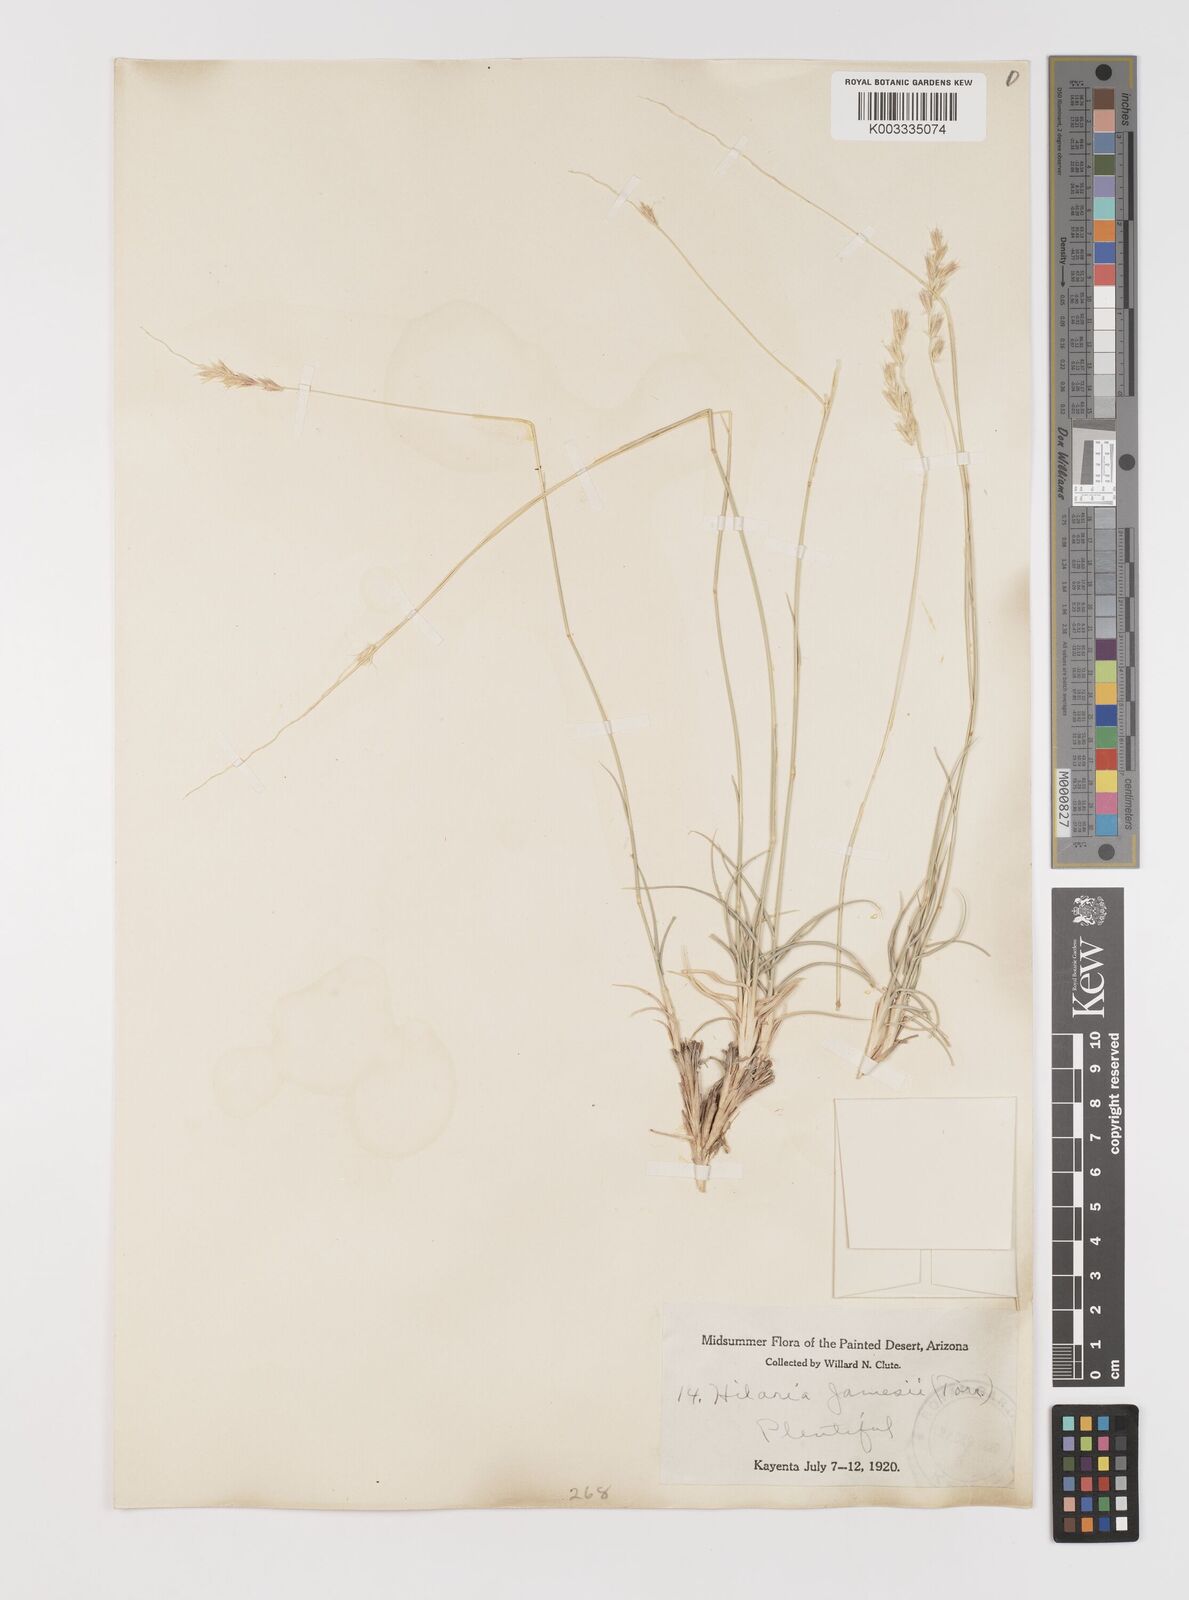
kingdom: Plantae
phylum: Tracheophyta
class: Liliopsida
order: Poales
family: Poaceae
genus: Hilaria
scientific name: Hilaria jamesii
